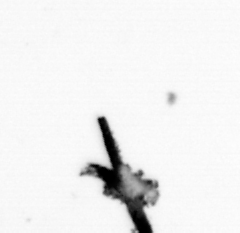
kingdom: Animalia
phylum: Arthropoda
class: Copepoda
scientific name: Copepoda
